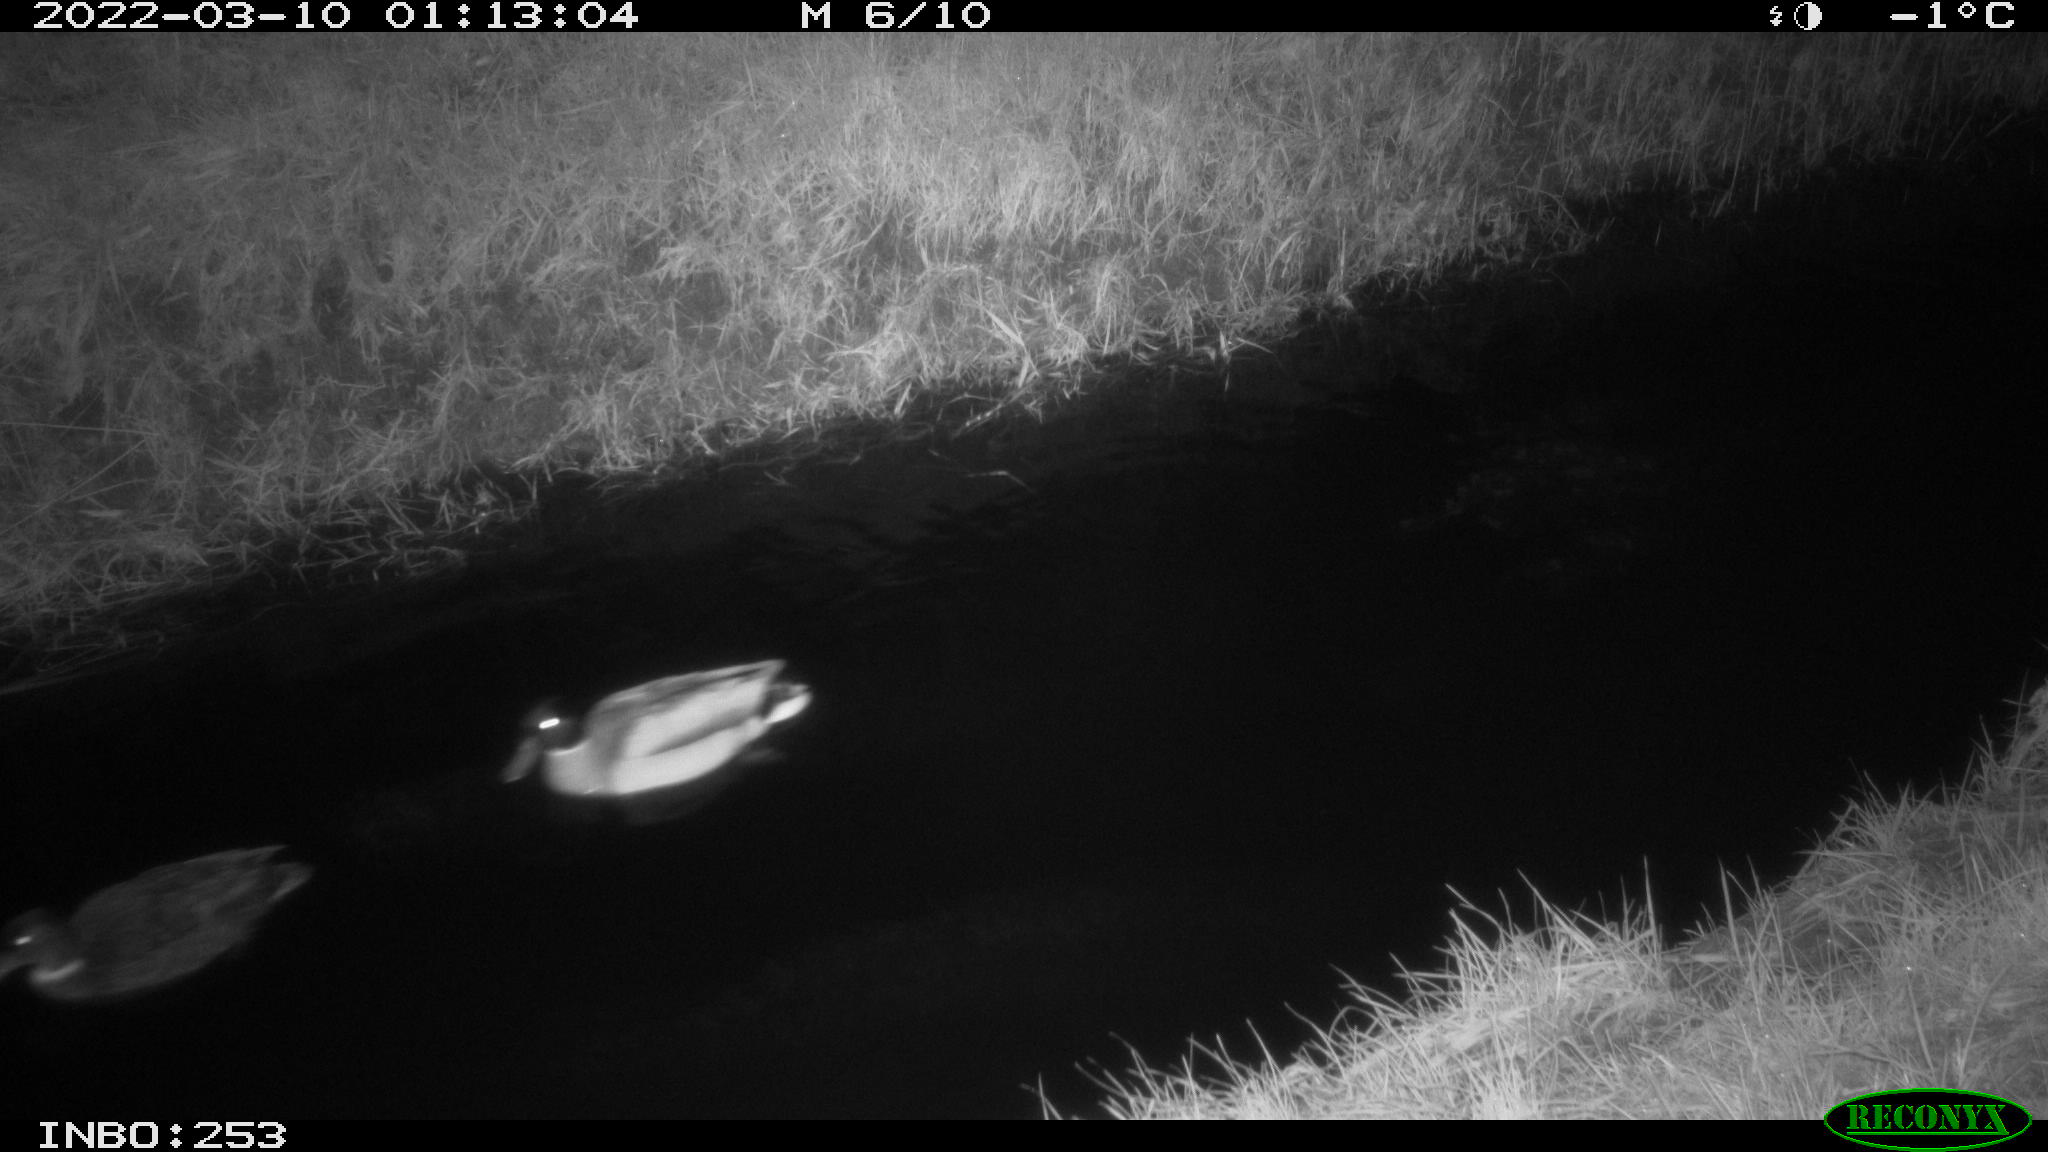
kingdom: Animalia
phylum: Chordata
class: Aves
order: Anseriformes
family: Anatidae
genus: Anas
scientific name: Anas platyrhynchos
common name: Mallard
